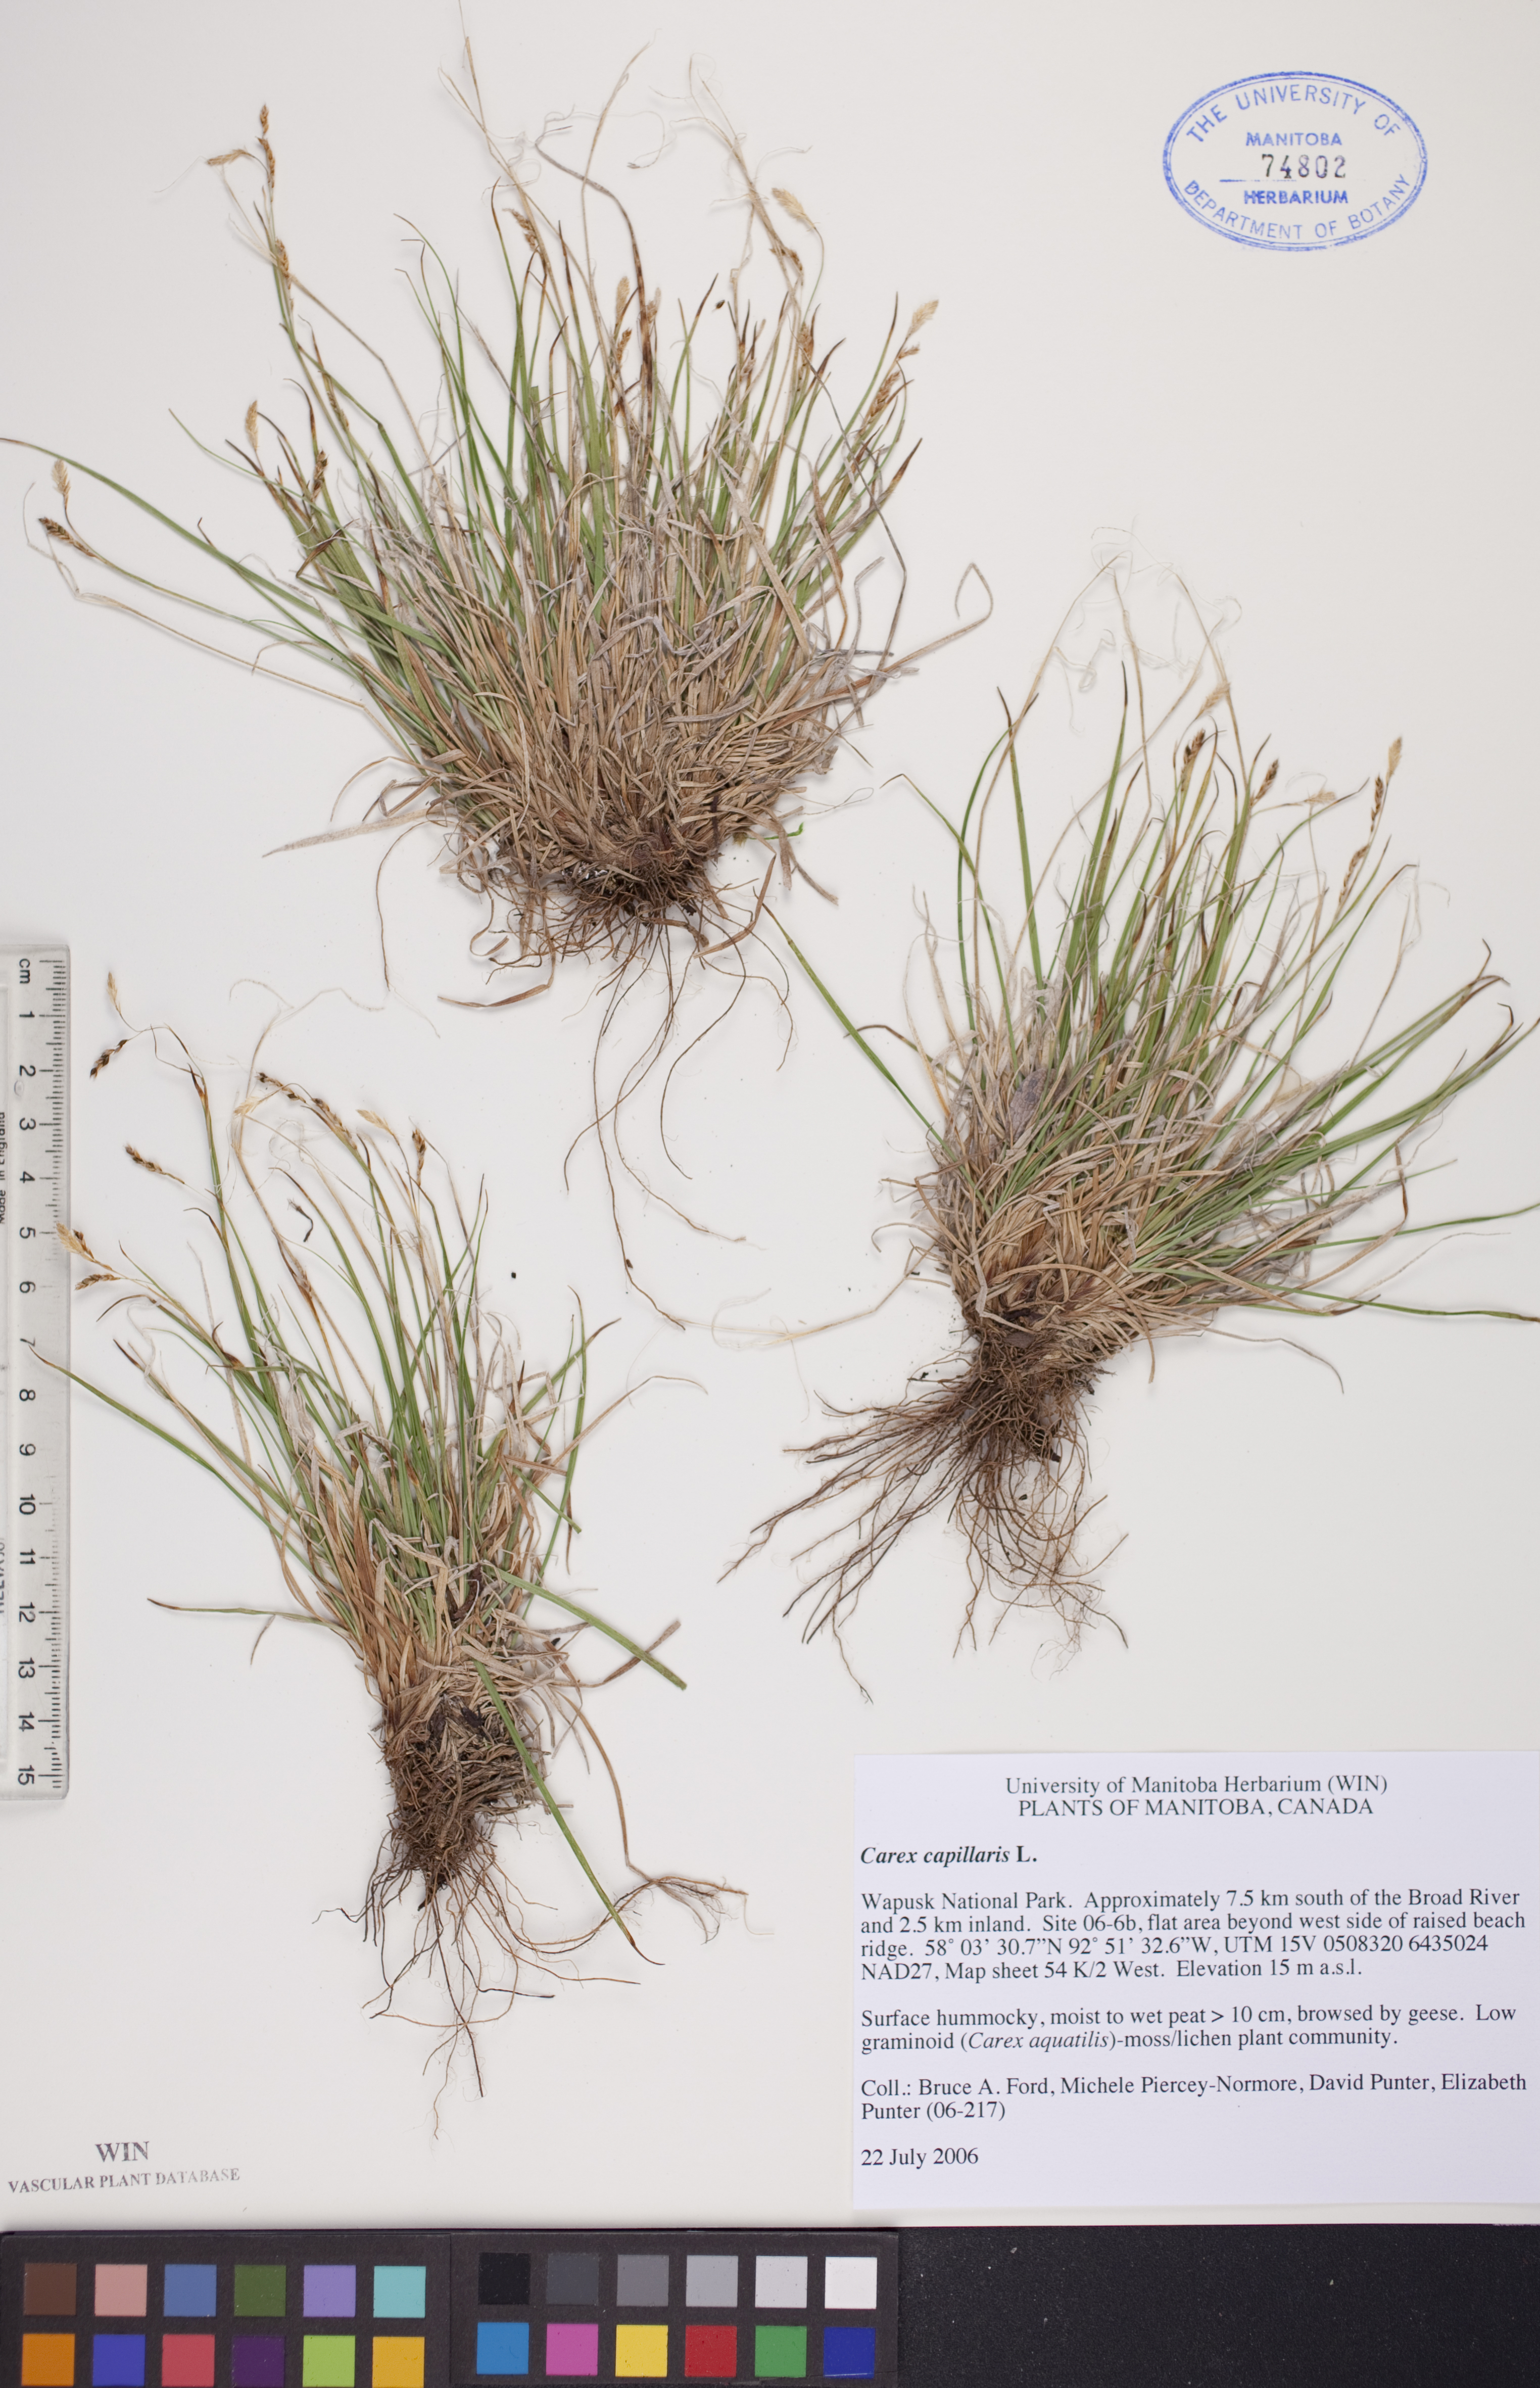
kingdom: Plantae
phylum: Tracheophyta
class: Liliopsida
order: Poales
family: Cyperaceae
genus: Carex
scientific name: Carex capillaris
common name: Hair sedge
